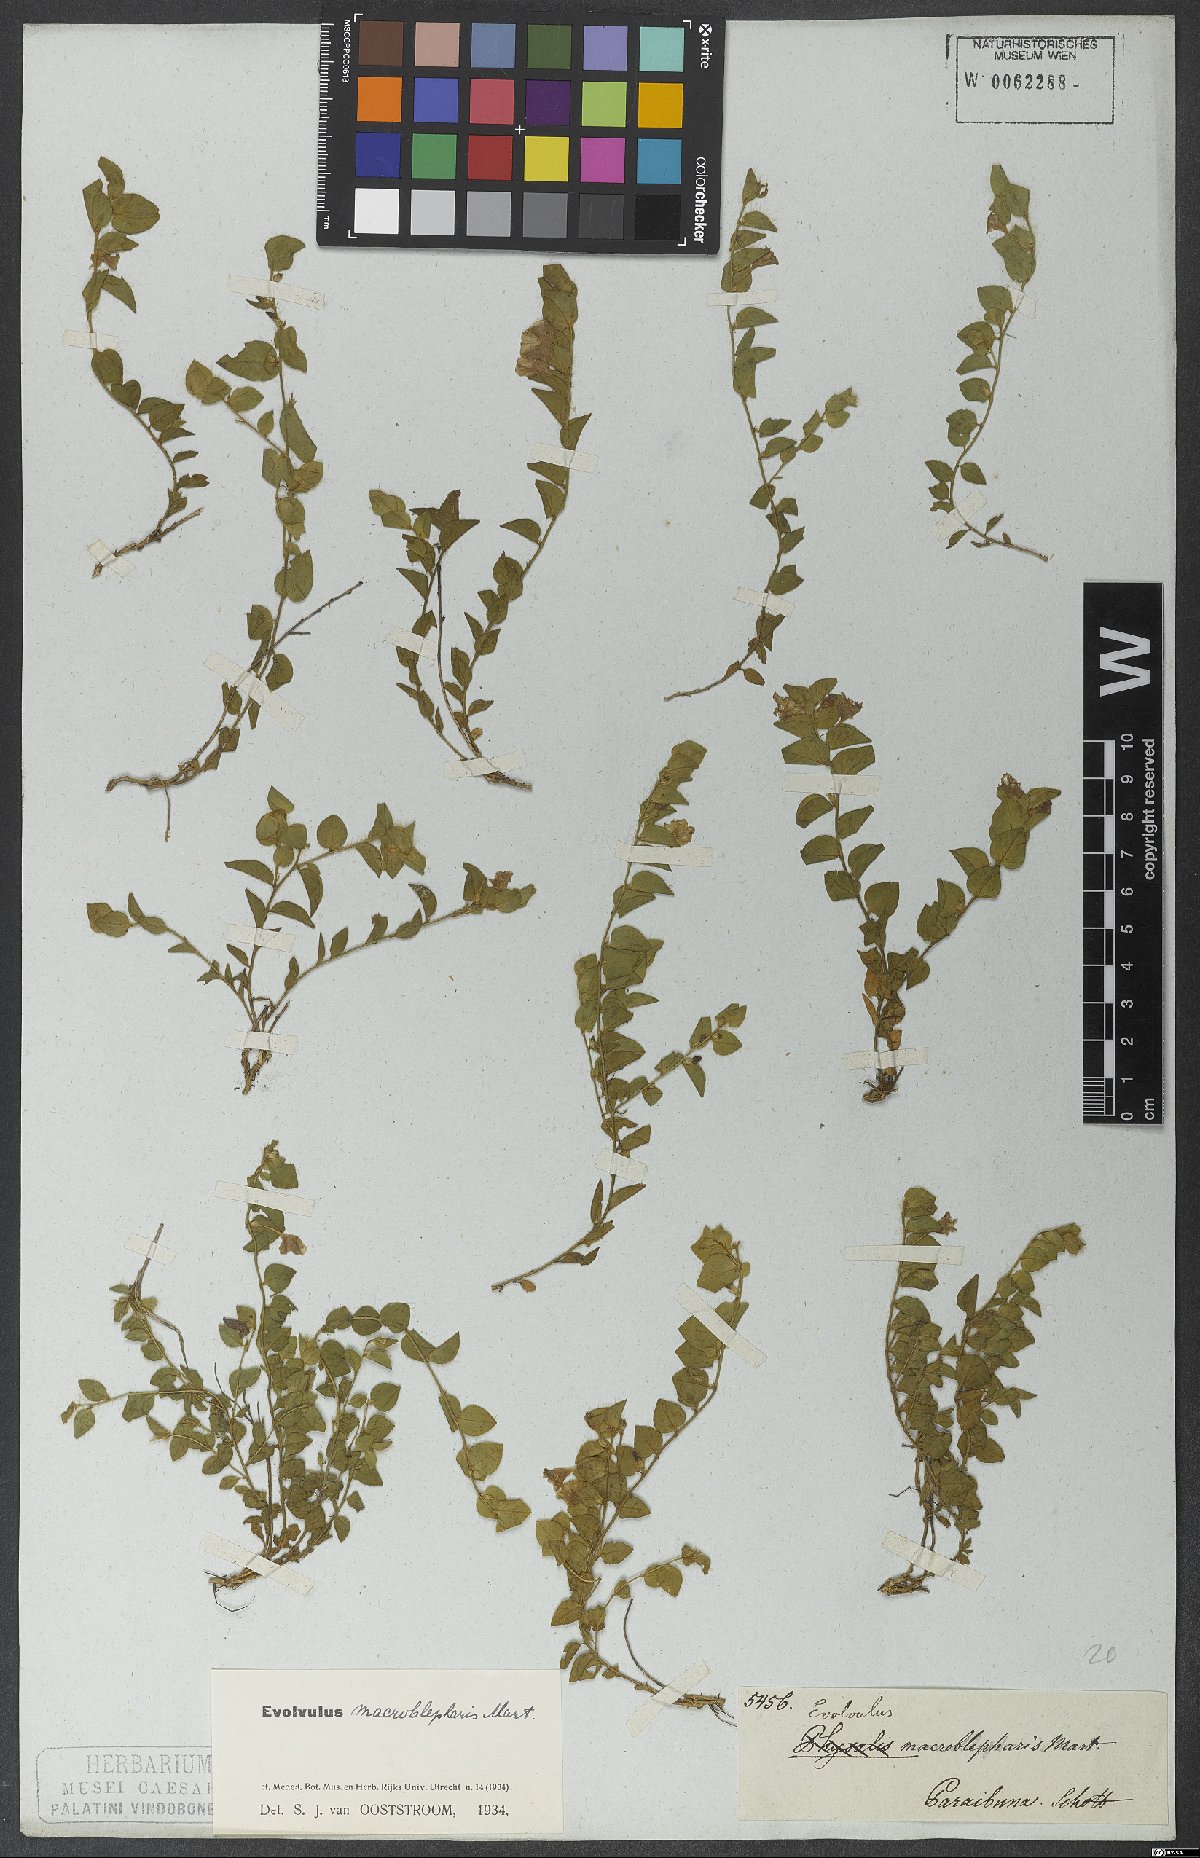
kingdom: Plantae
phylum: Tracheophyta
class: Magnoliopsida
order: Solanales
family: Convolvulaceae
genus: Evolvulus
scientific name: Evolvulus macroblepharis
